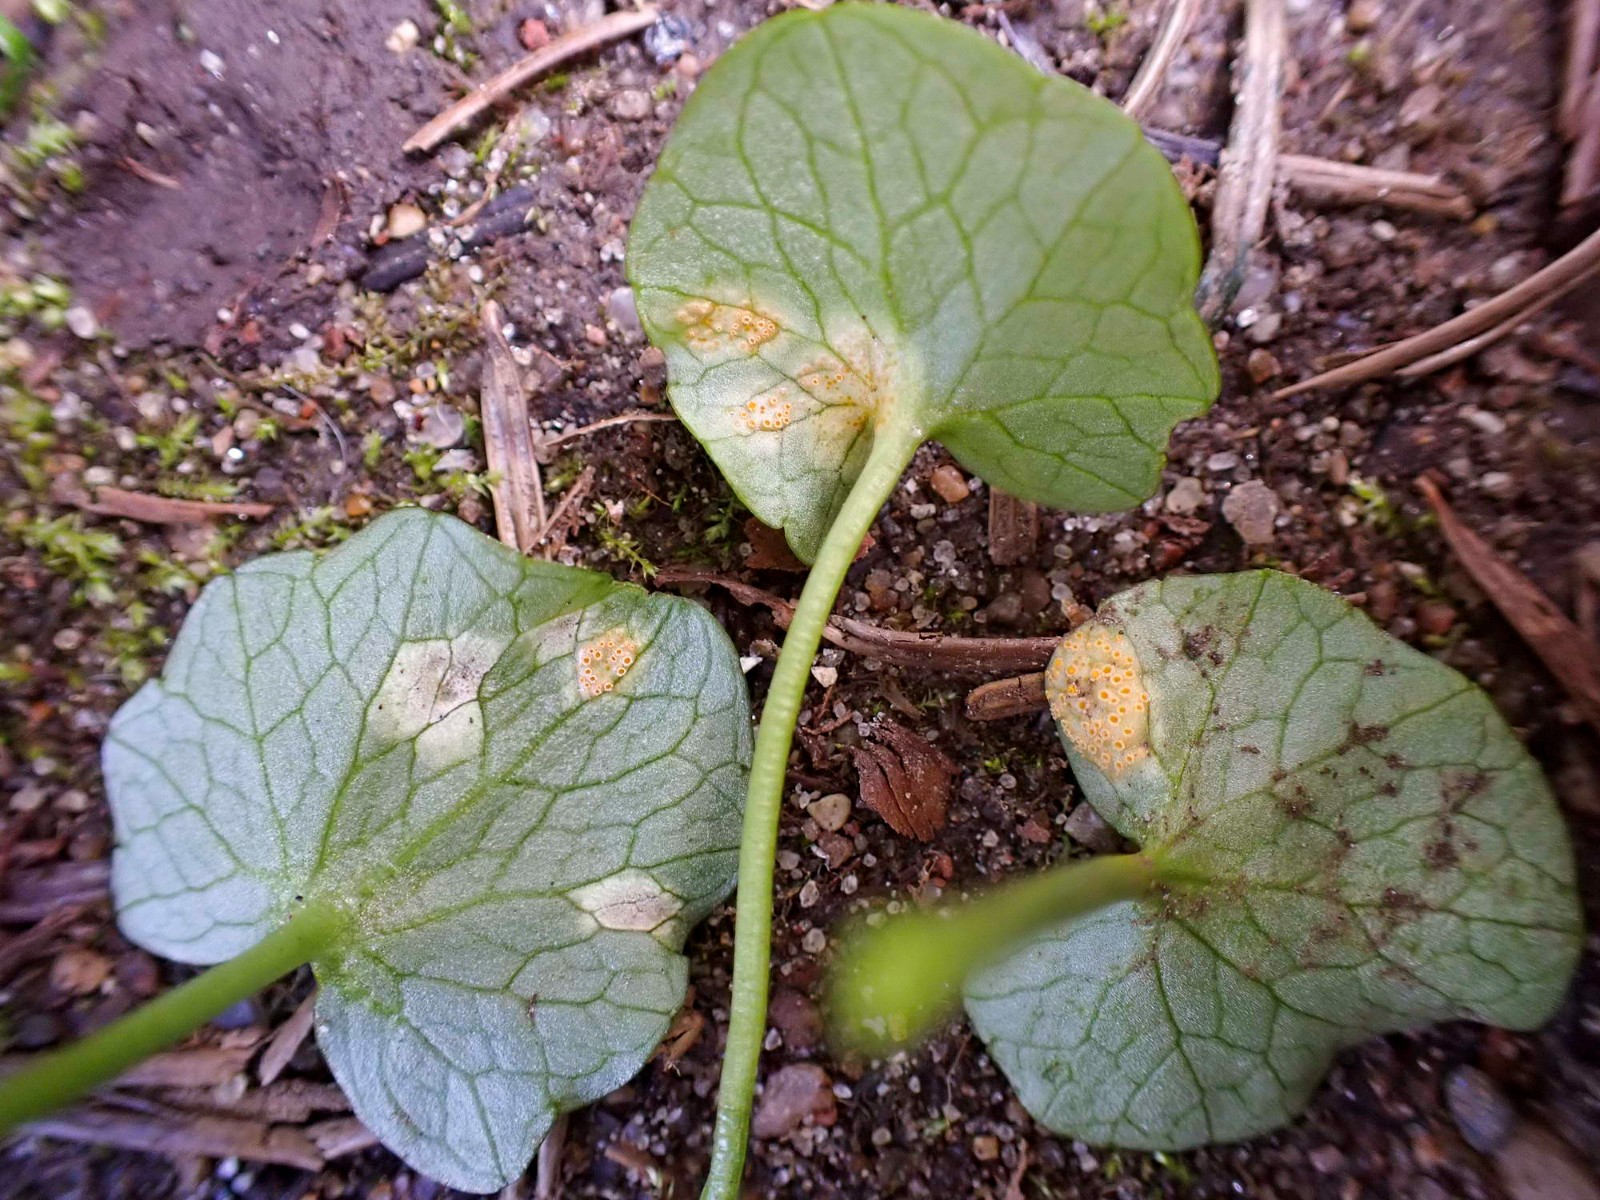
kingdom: Fungi
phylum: Basidiomycota
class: Pucciniomycetes
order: Pucciniales
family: Pucciniaceae
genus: Uromyces
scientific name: Uromyces dactylidis
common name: ranunkel-encellerust
